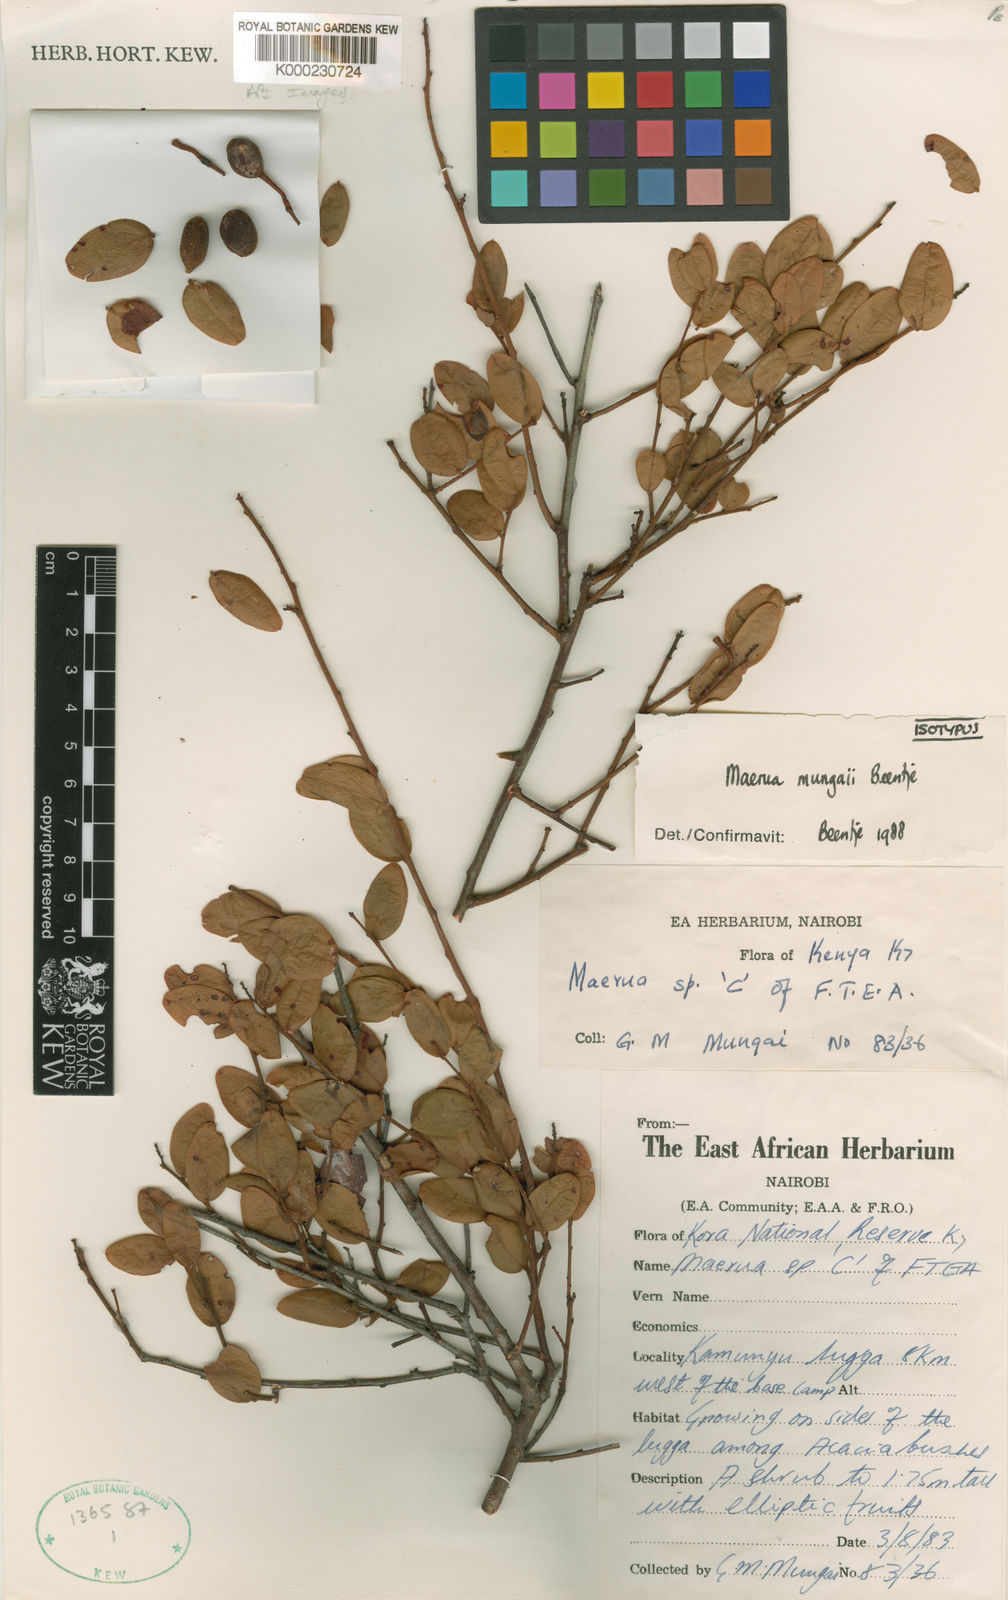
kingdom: Plantae
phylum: Tracheophyta
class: Magnoliopsida
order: Brassicales
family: Capparaceae
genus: Maerua
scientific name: Maerua
